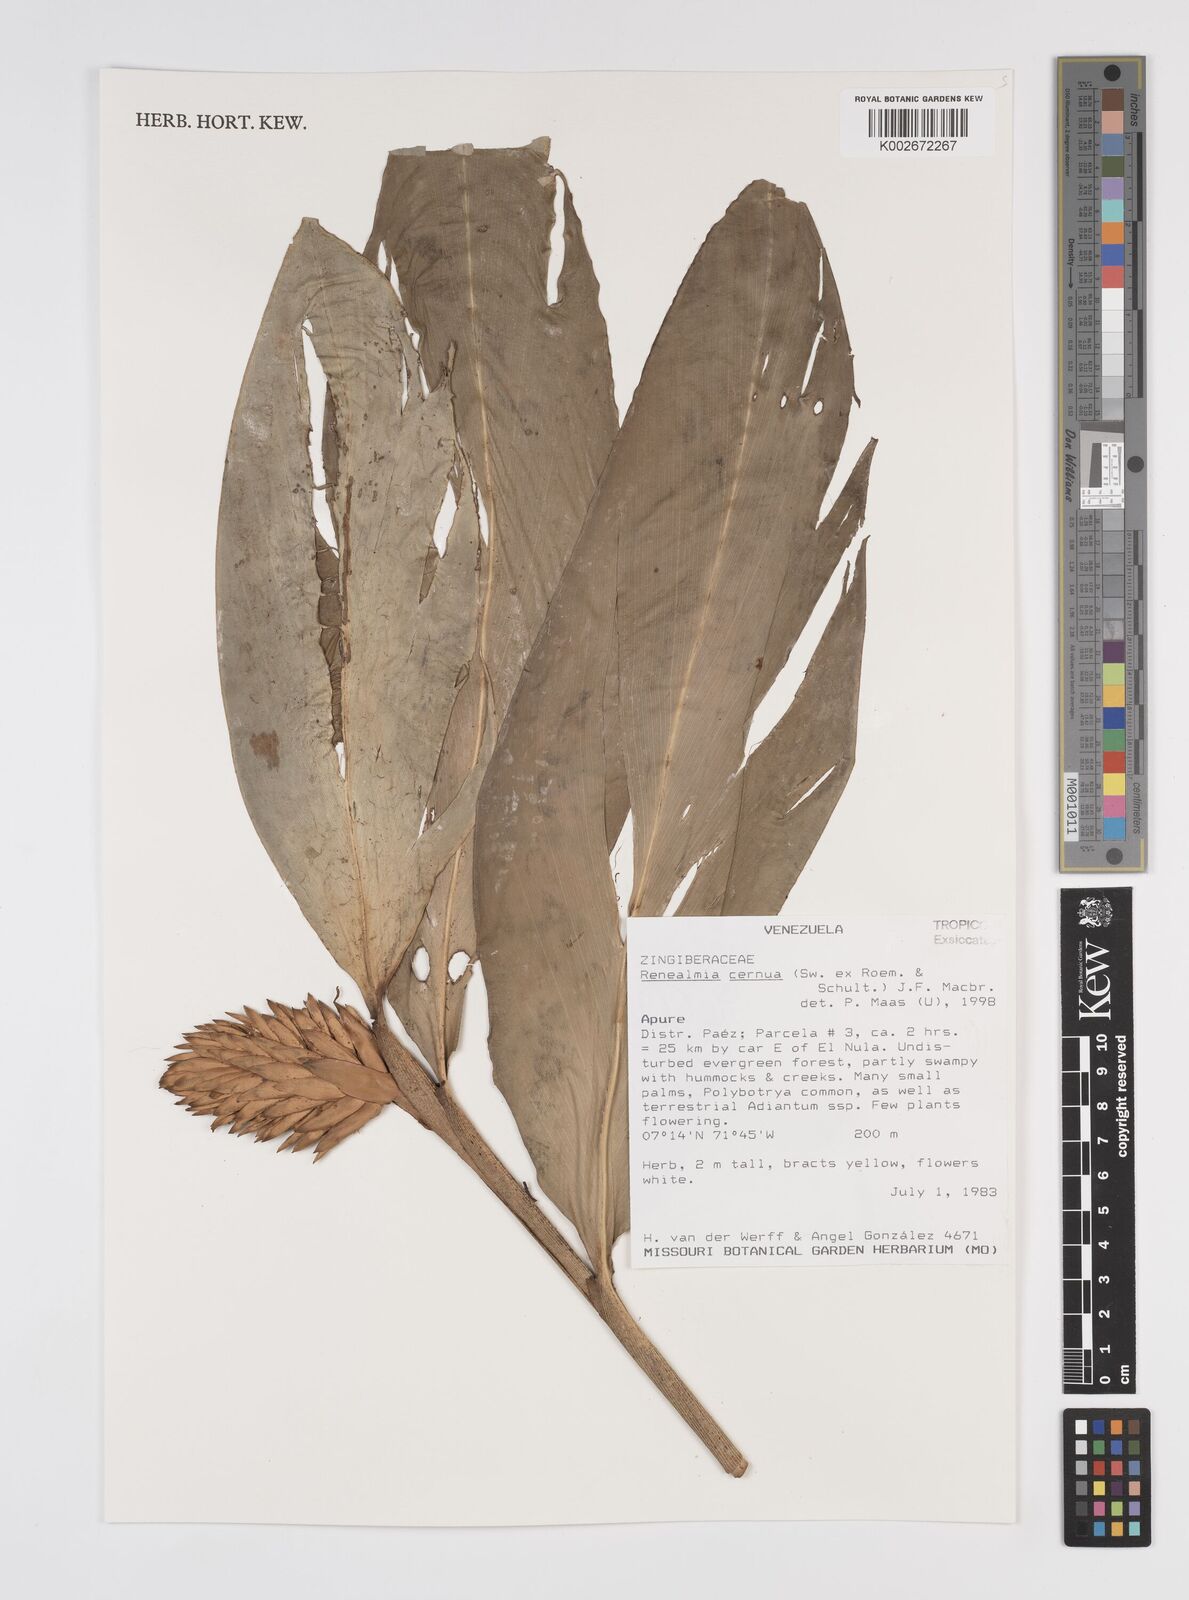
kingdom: Plantae
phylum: Tracheophyta
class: Liliopsida
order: Zingiberales
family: Zingiberaceae
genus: Renealmia
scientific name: Renealmia cernua
